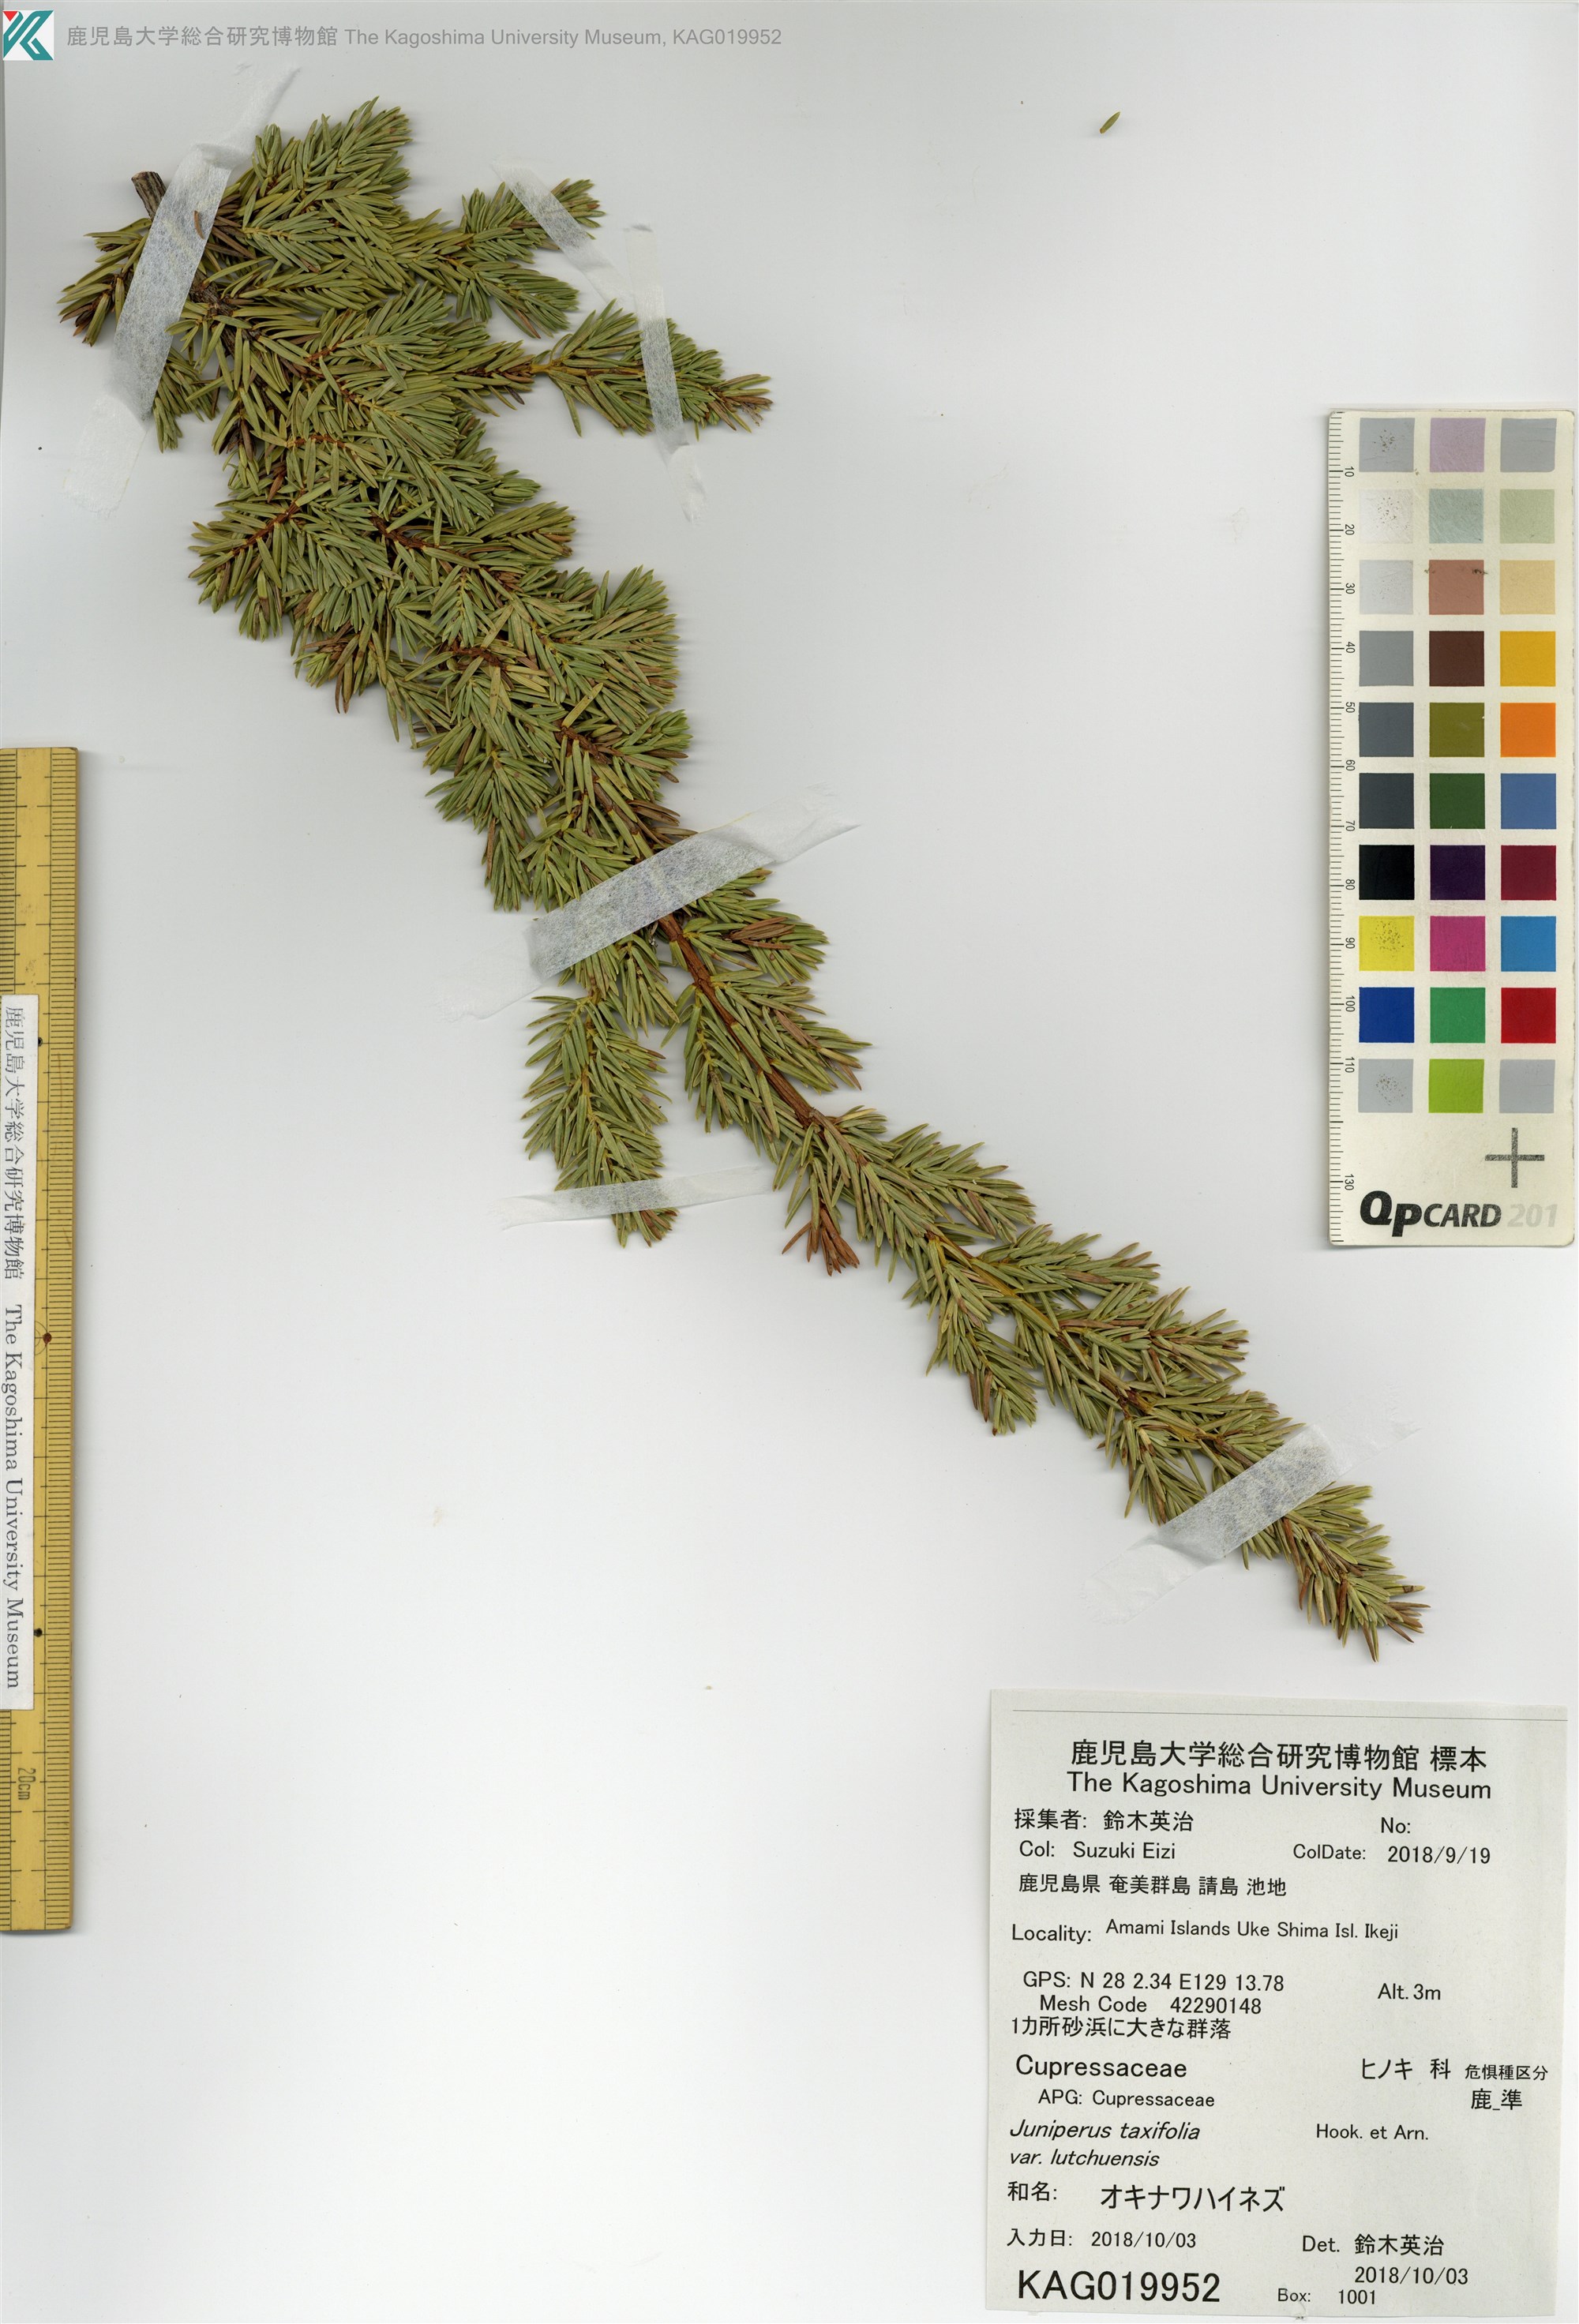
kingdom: Plantae
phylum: Tracheophyta
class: Pinopsida
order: Pinales
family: Cupressaceae
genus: Juniperus
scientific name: Juniperus taxifolia
